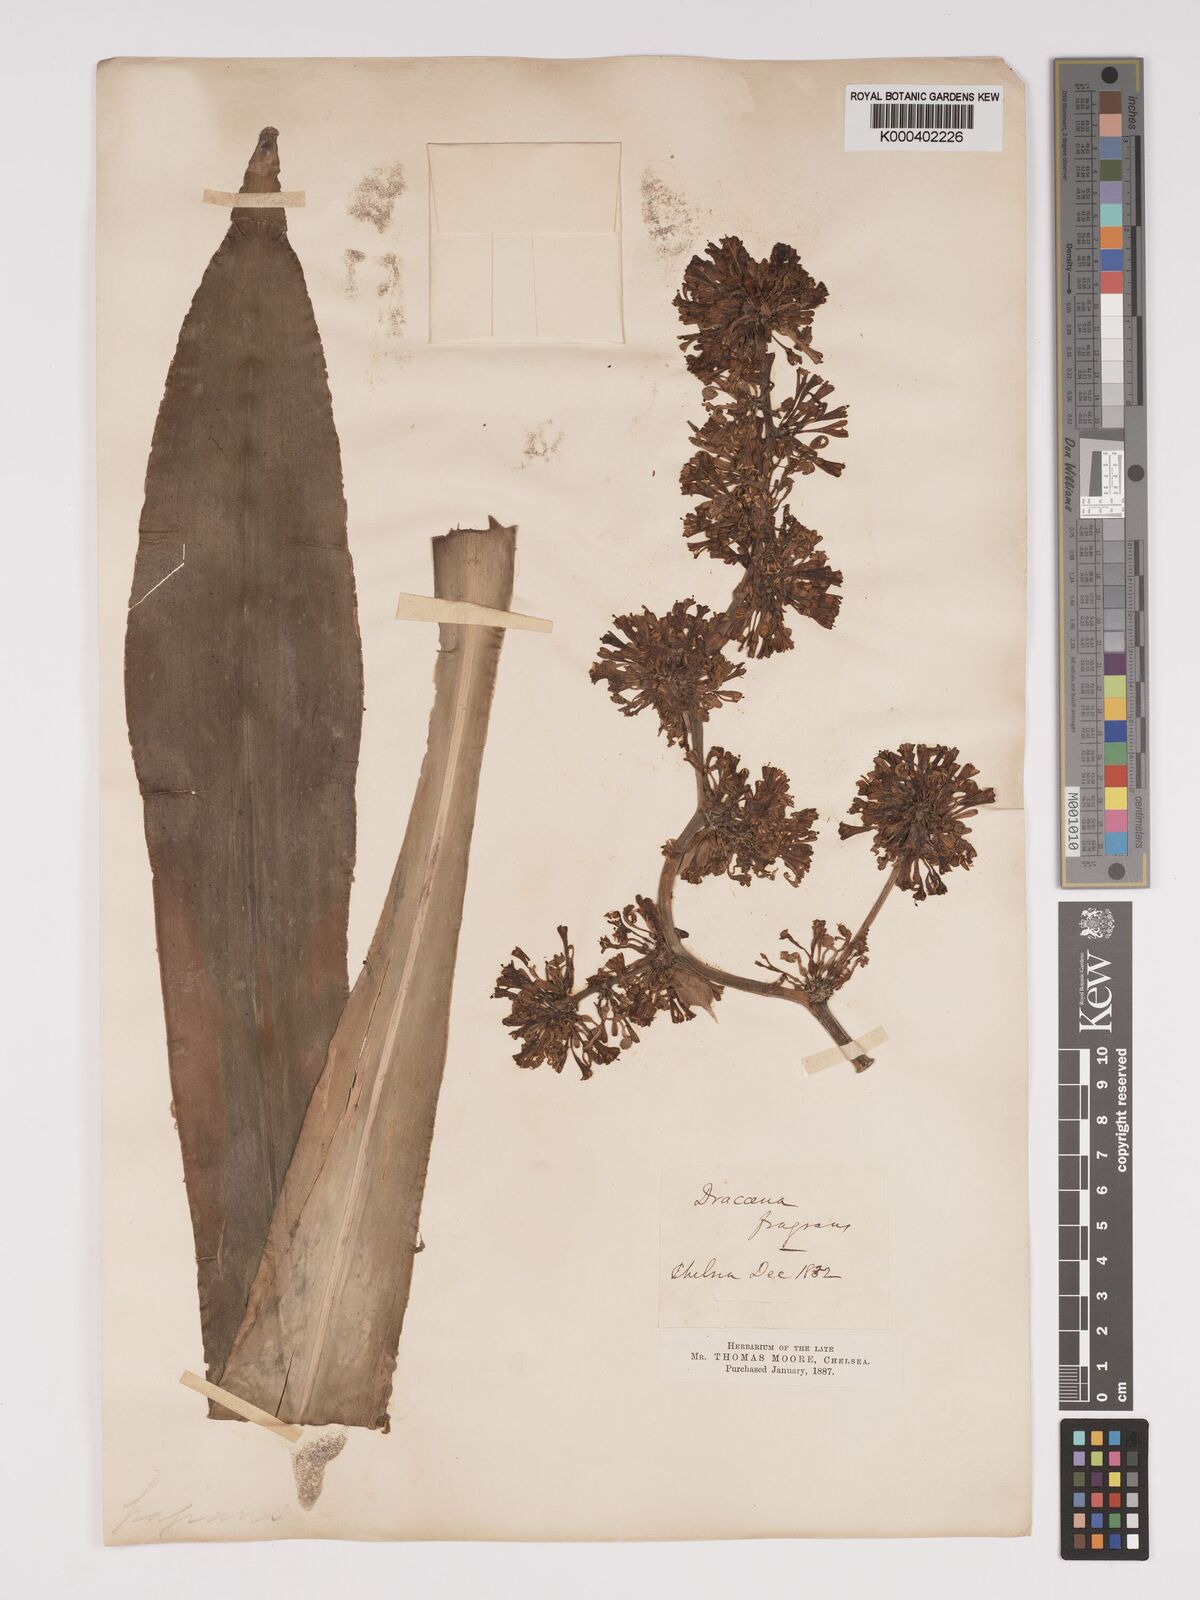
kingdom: Plantae
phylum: Tracheophyta
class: Liliopsida
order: Asparagales
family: Asparagaceae
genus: Dracaena
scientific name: Dracaena fragrans
